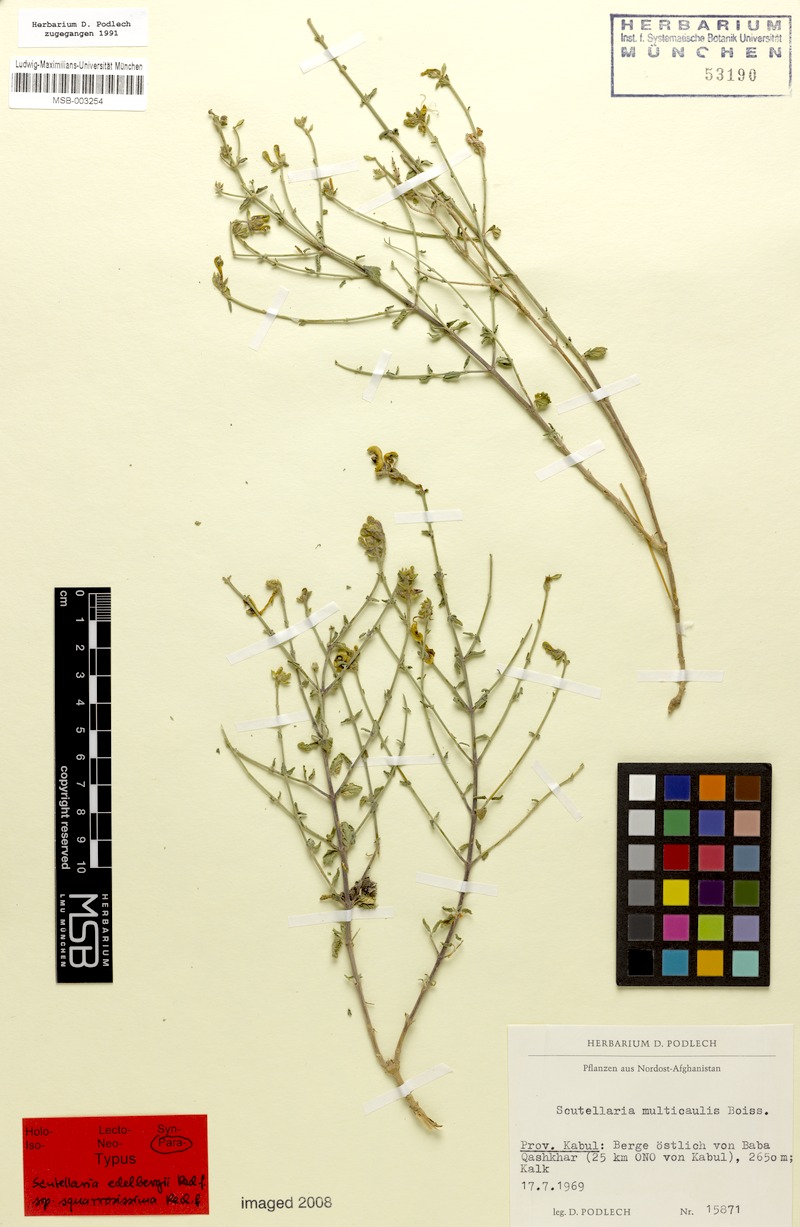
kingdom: Plantae
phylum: Tracheophyta
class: Magnoliopsida
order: Lamiales
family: Lamiaceae
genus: Scutellaria
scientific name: Scutellaria edelbergii
